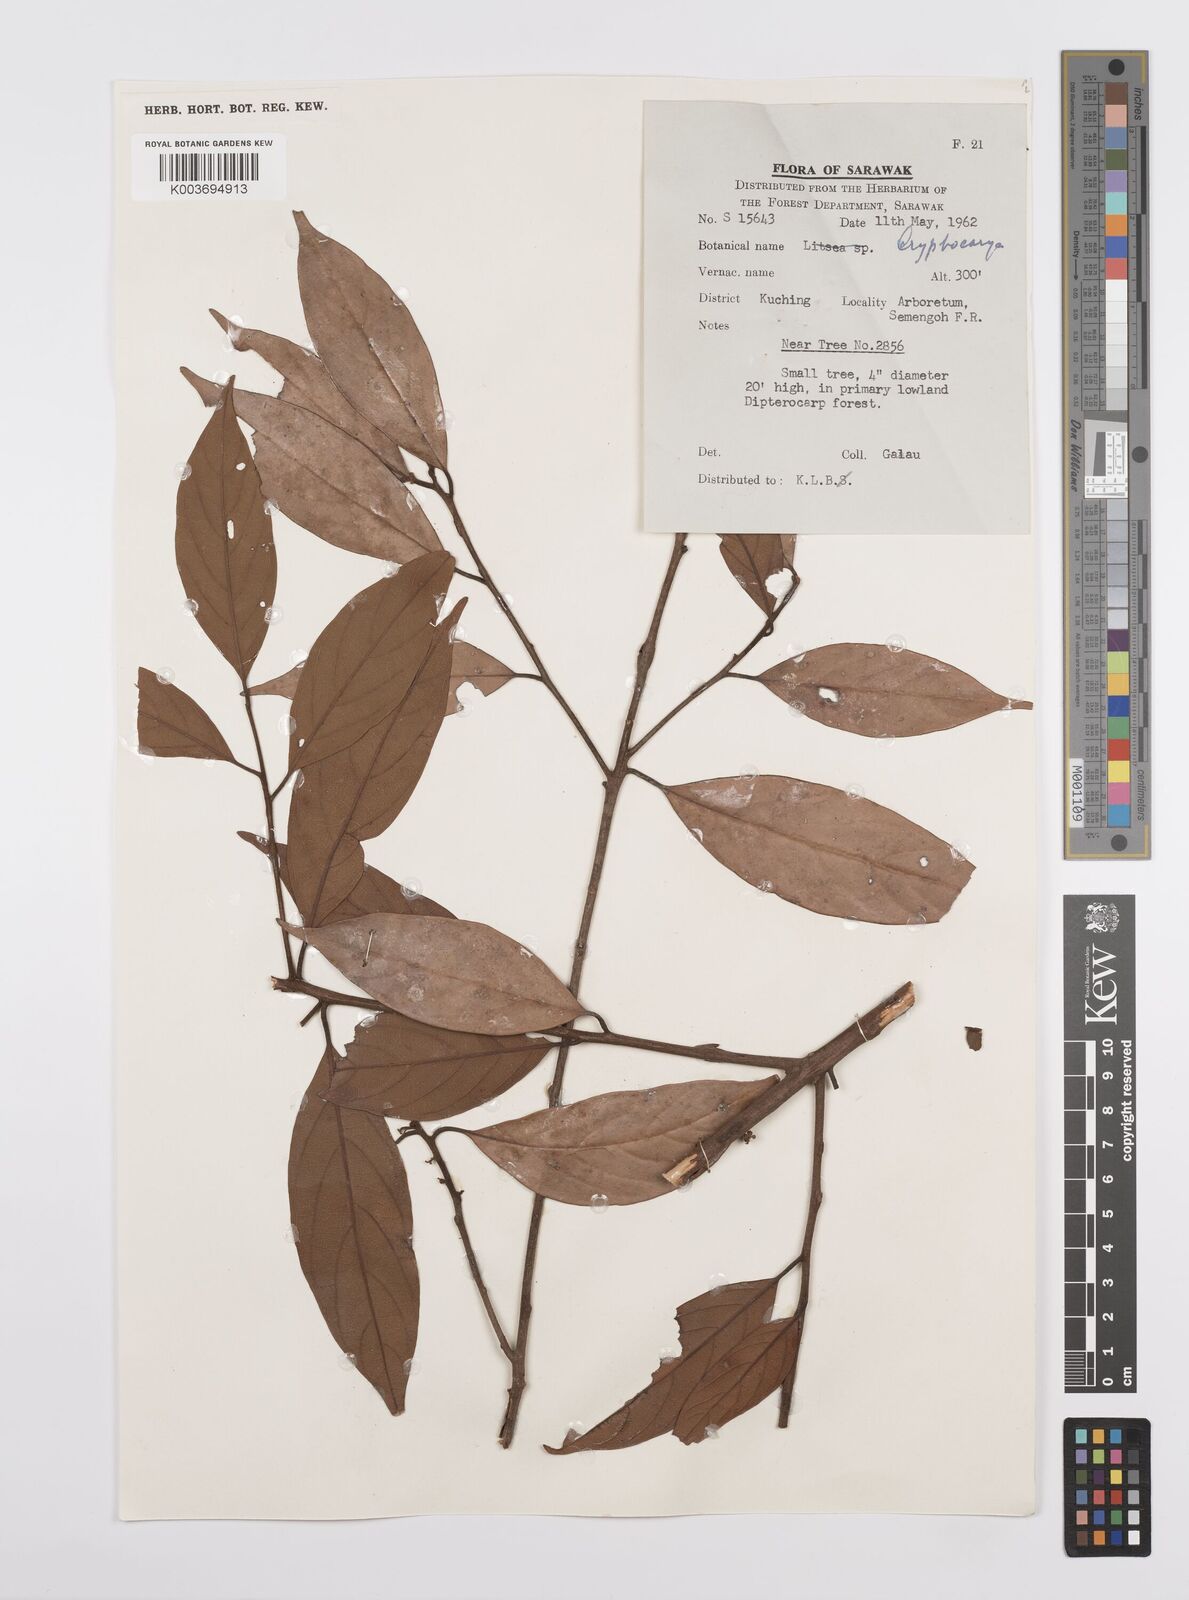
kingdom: Plantae
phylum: Tracheophyta
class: Magnoliopsida
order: Laurales
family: Lauraceae
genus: Cryptocarya
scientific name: Cryptocarya
